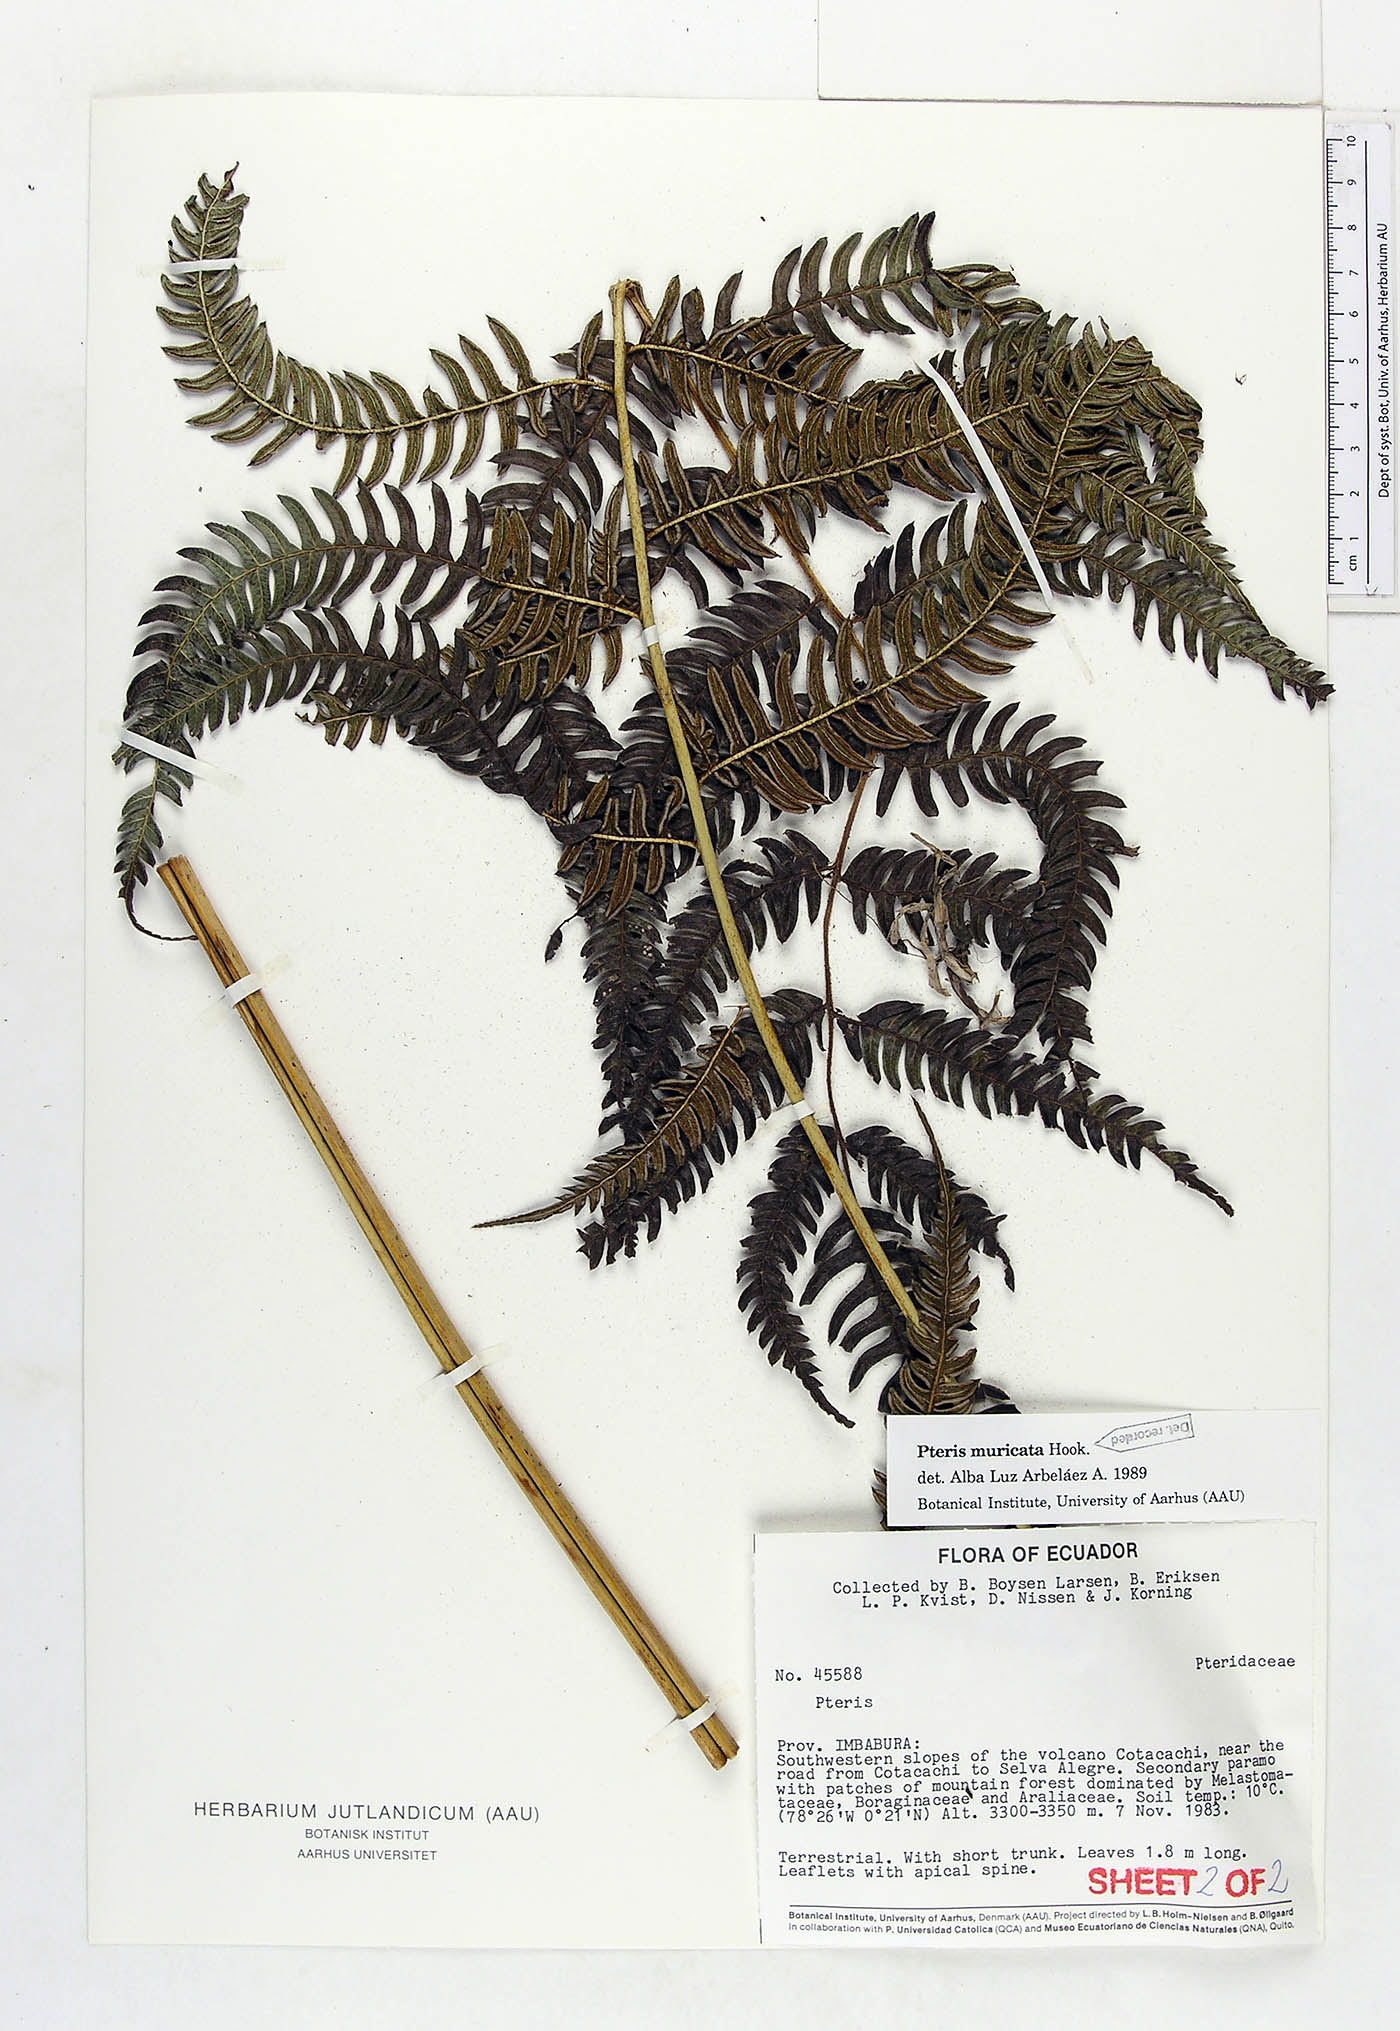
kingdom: Plantae
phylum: Tracheophyta
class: Polypodiopsida
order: Polypodiales
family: Pteridaceae
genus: Pteris
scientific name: Pteris muricata
